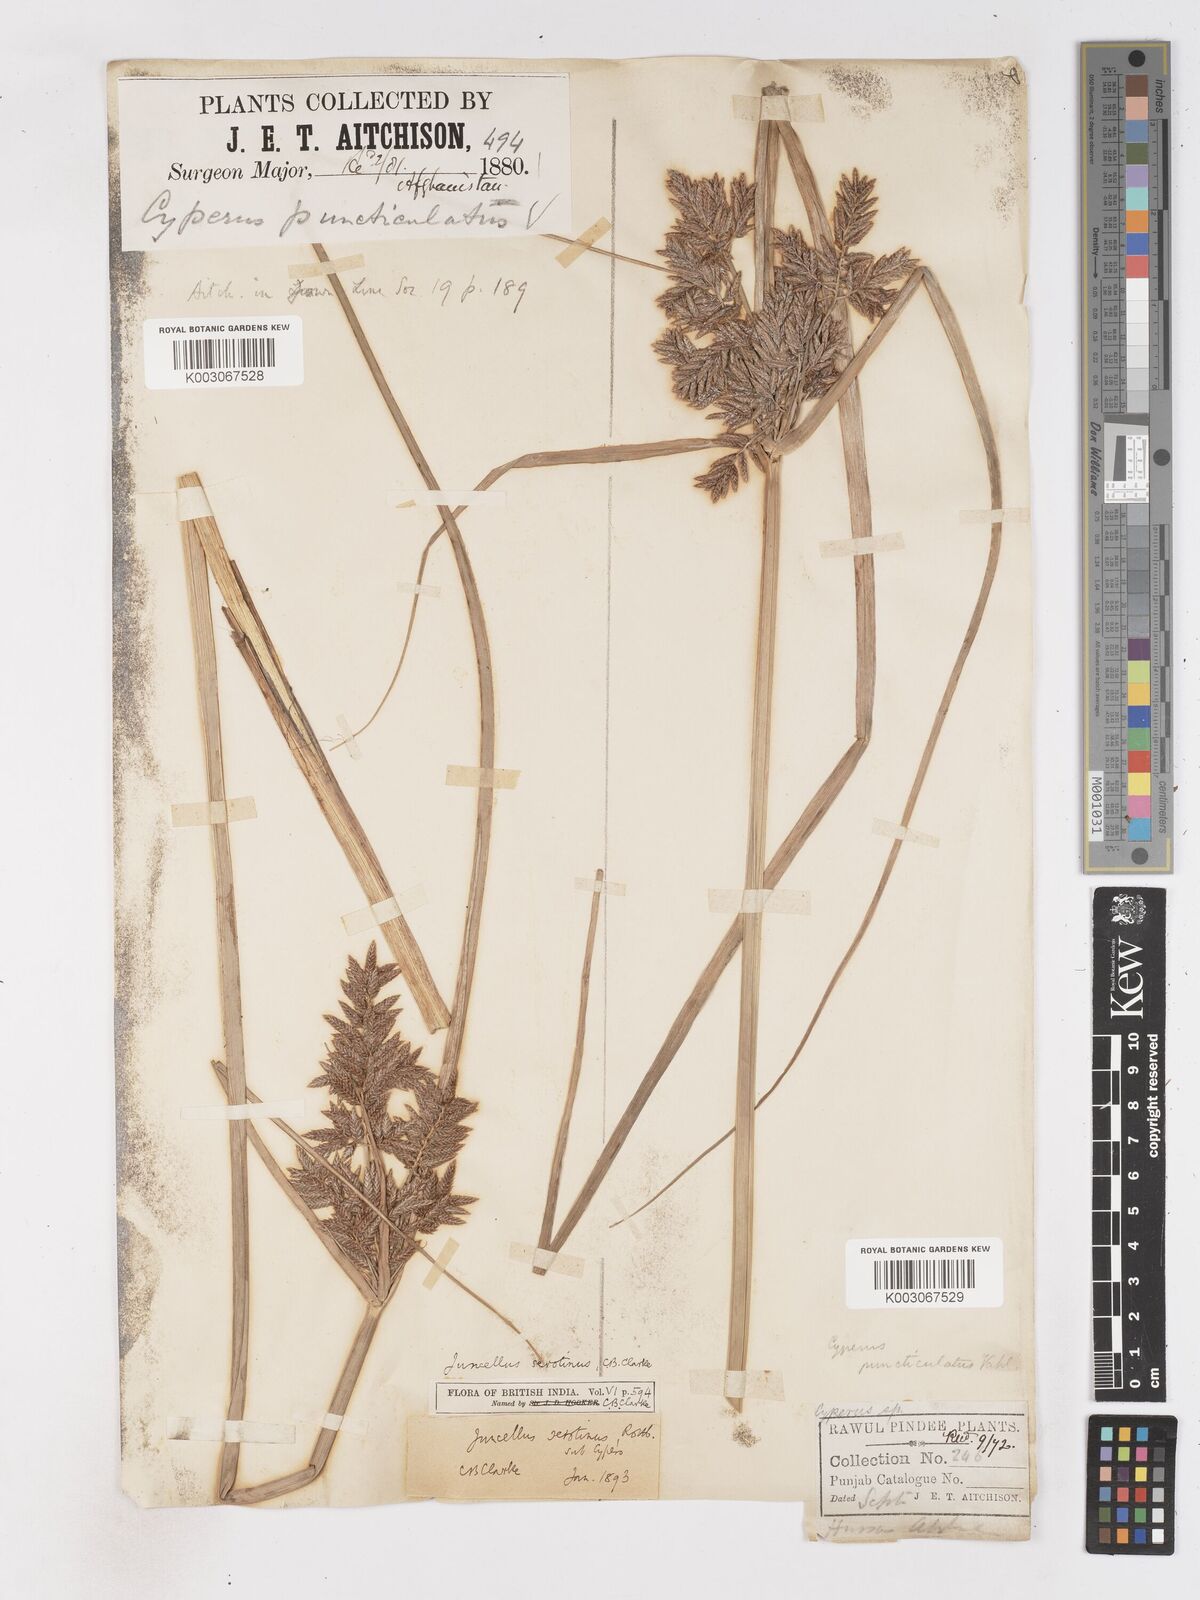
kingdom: Plantae
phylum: Tracheophyta
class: Liliopsida
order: Poales
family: Cyperaceae
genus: Cyperus
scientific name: Cyperus serotinus
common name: Tidalmarsh flatsedge
